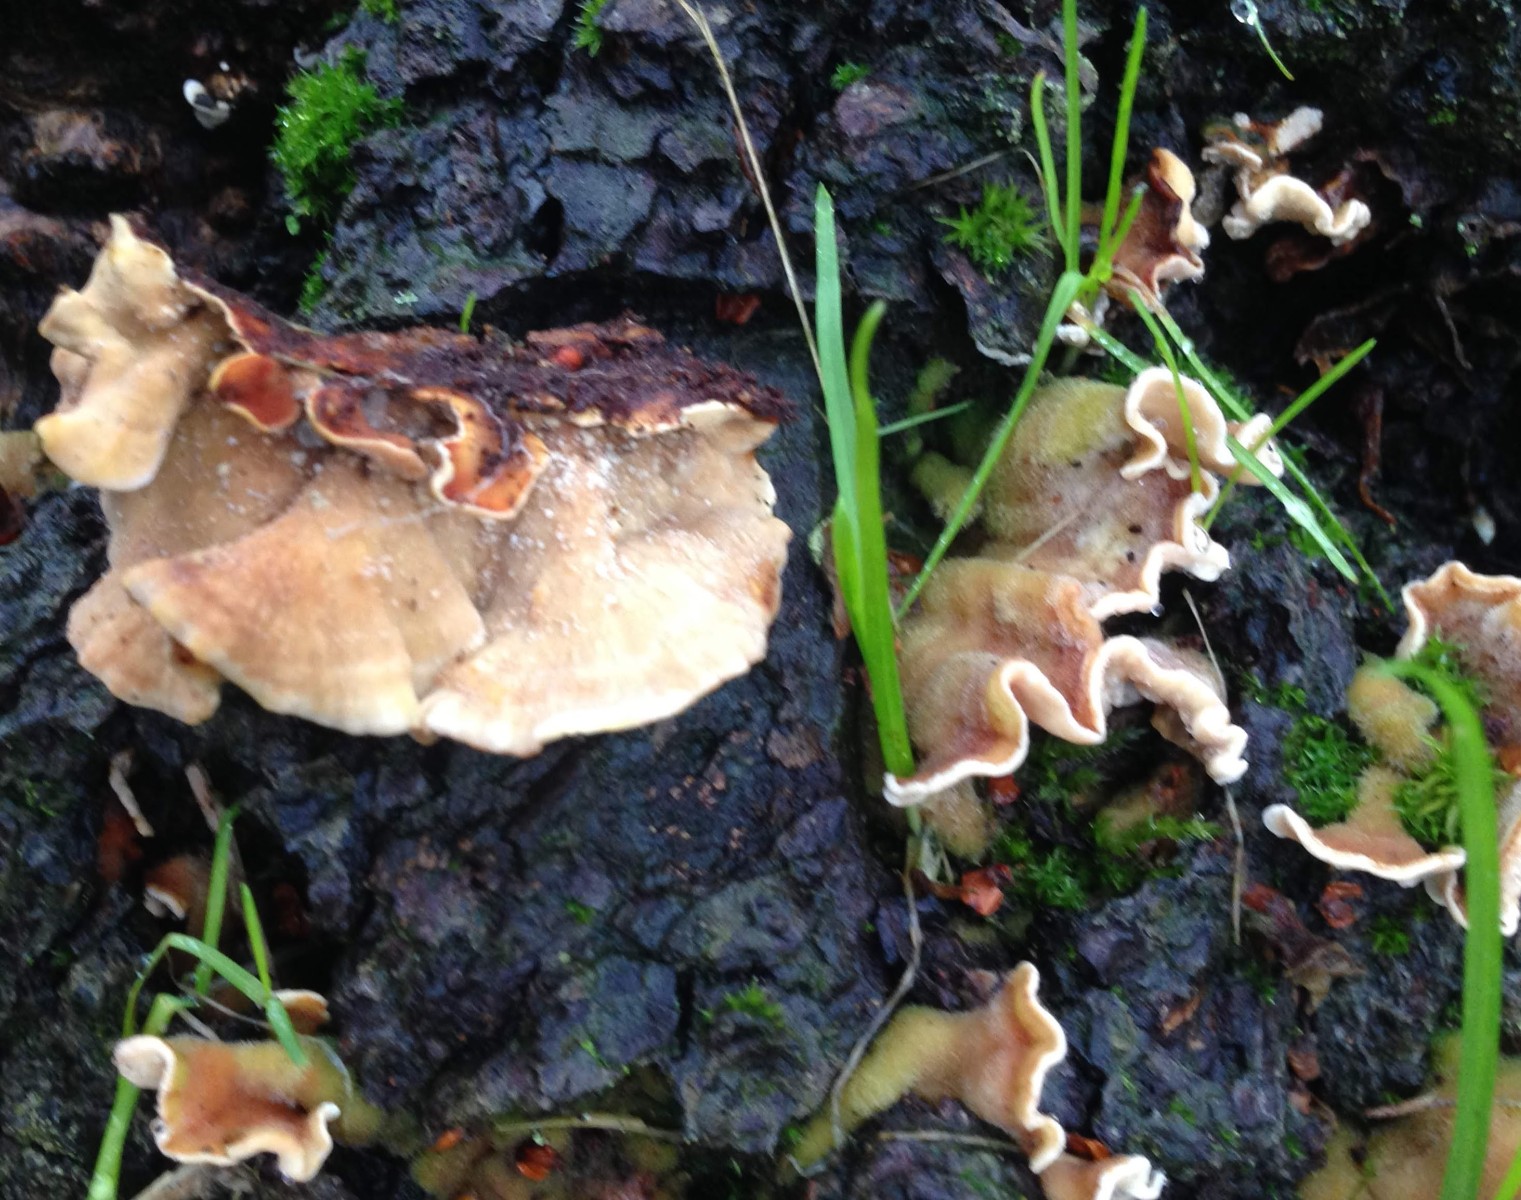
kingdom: Fungi
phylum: Basidiomycota
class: Agaricomycetes
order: Russulales
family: Stereaceae
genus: Stereum
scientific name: Stereum hirsutum
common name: håret lædersvamp
